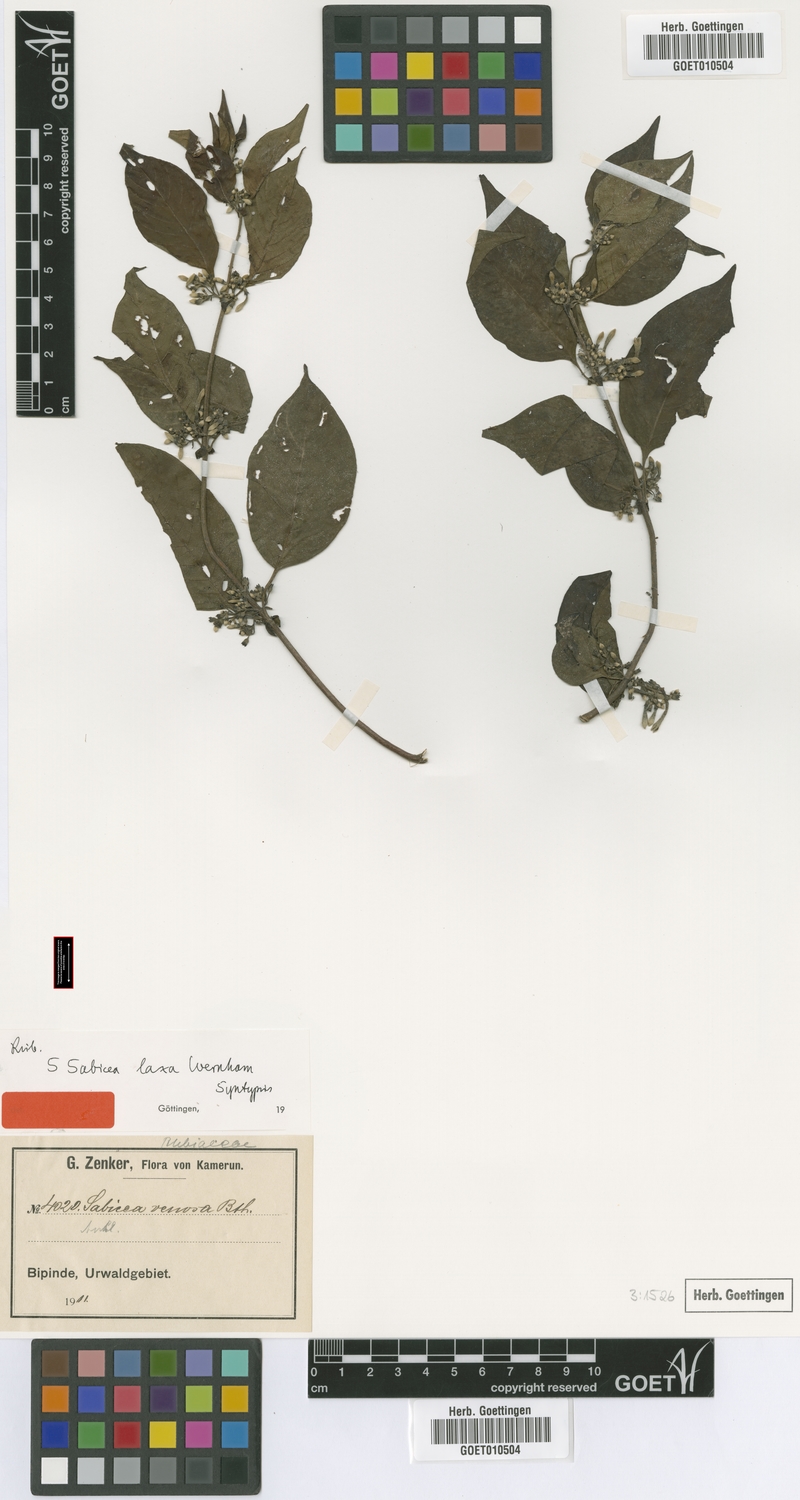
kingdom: Plantae
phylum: Tracheophyta
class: Magnoliopsida
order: Gentianales
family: Rubiaceae
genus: Sabicea
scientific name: Sabicea laxa
